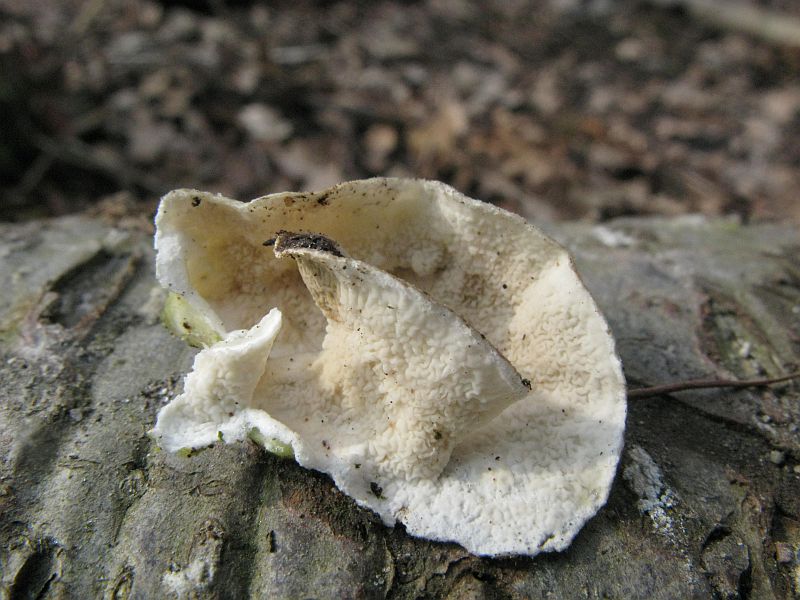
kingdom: Fungi
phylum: Basidiomycota
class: Agaricomycetes
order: Polyporales
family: Irpicaceae
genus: Byssomerulius
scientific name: Byssomerulius corium
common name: læder-åresvamp
